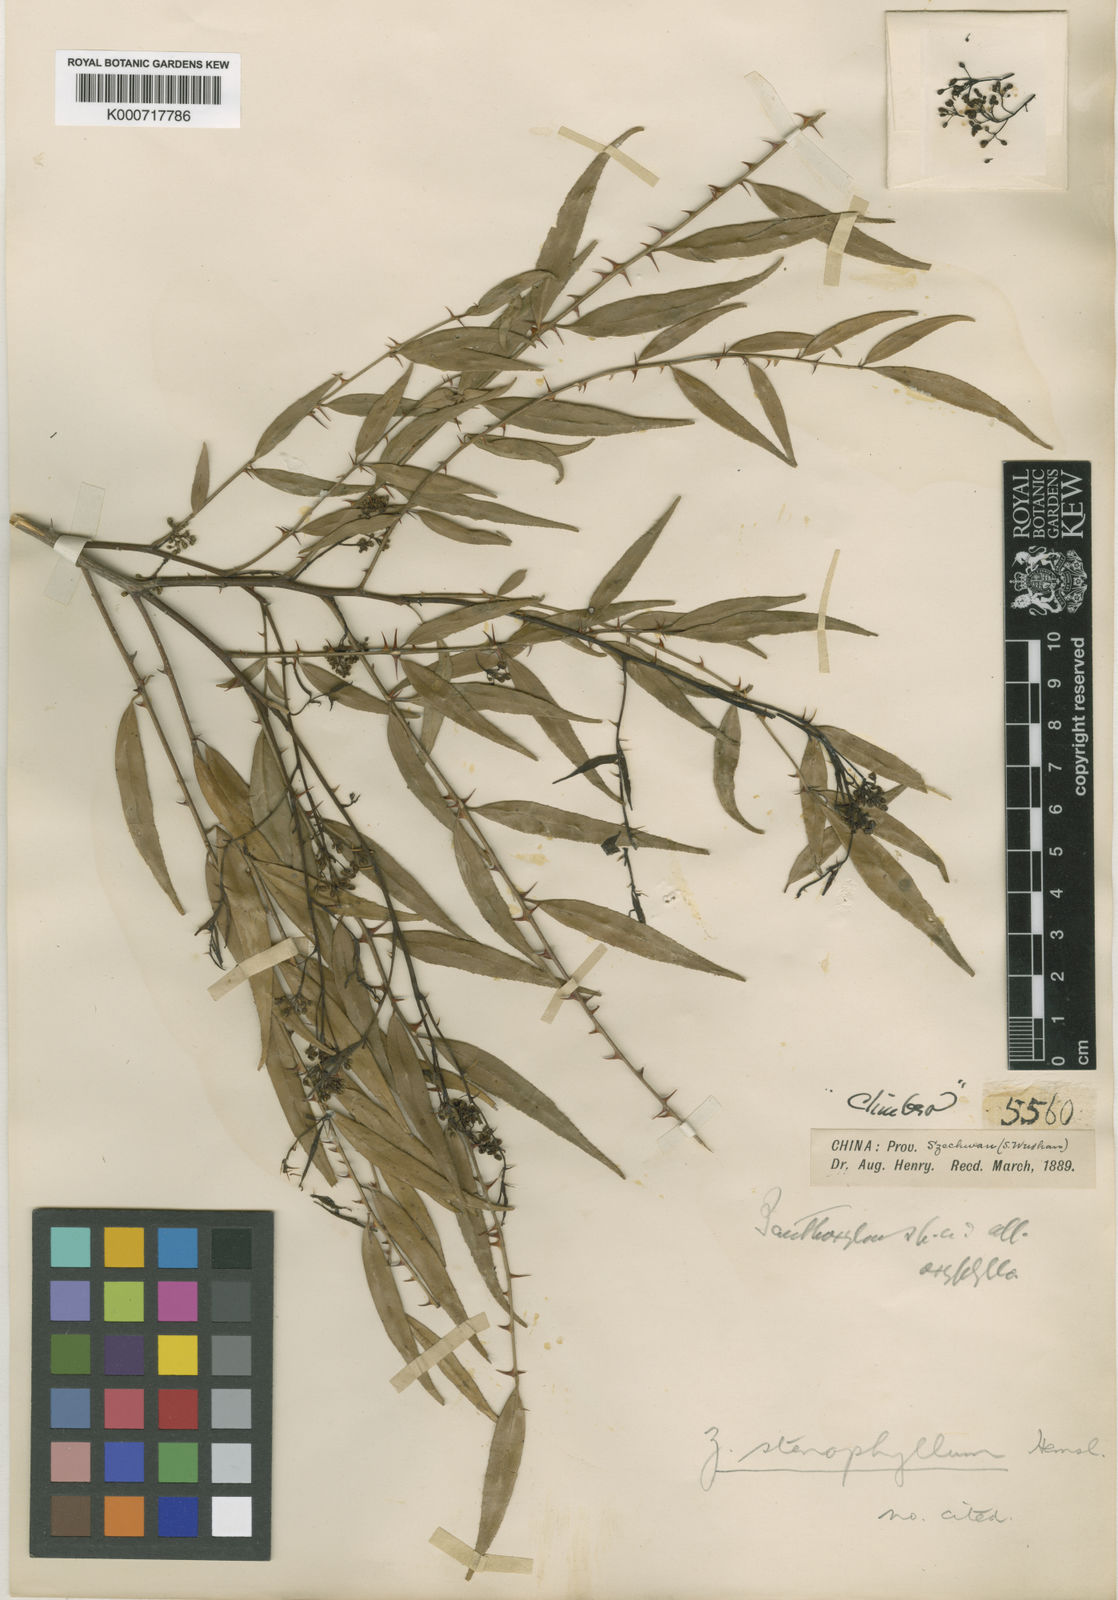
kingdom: Plantae
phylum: Tracheophyta
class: Magnoliopsida
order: Sapindales
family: Rutaceae
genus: Zanthoxylum
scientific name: Zanthoxylum stenophyllum
